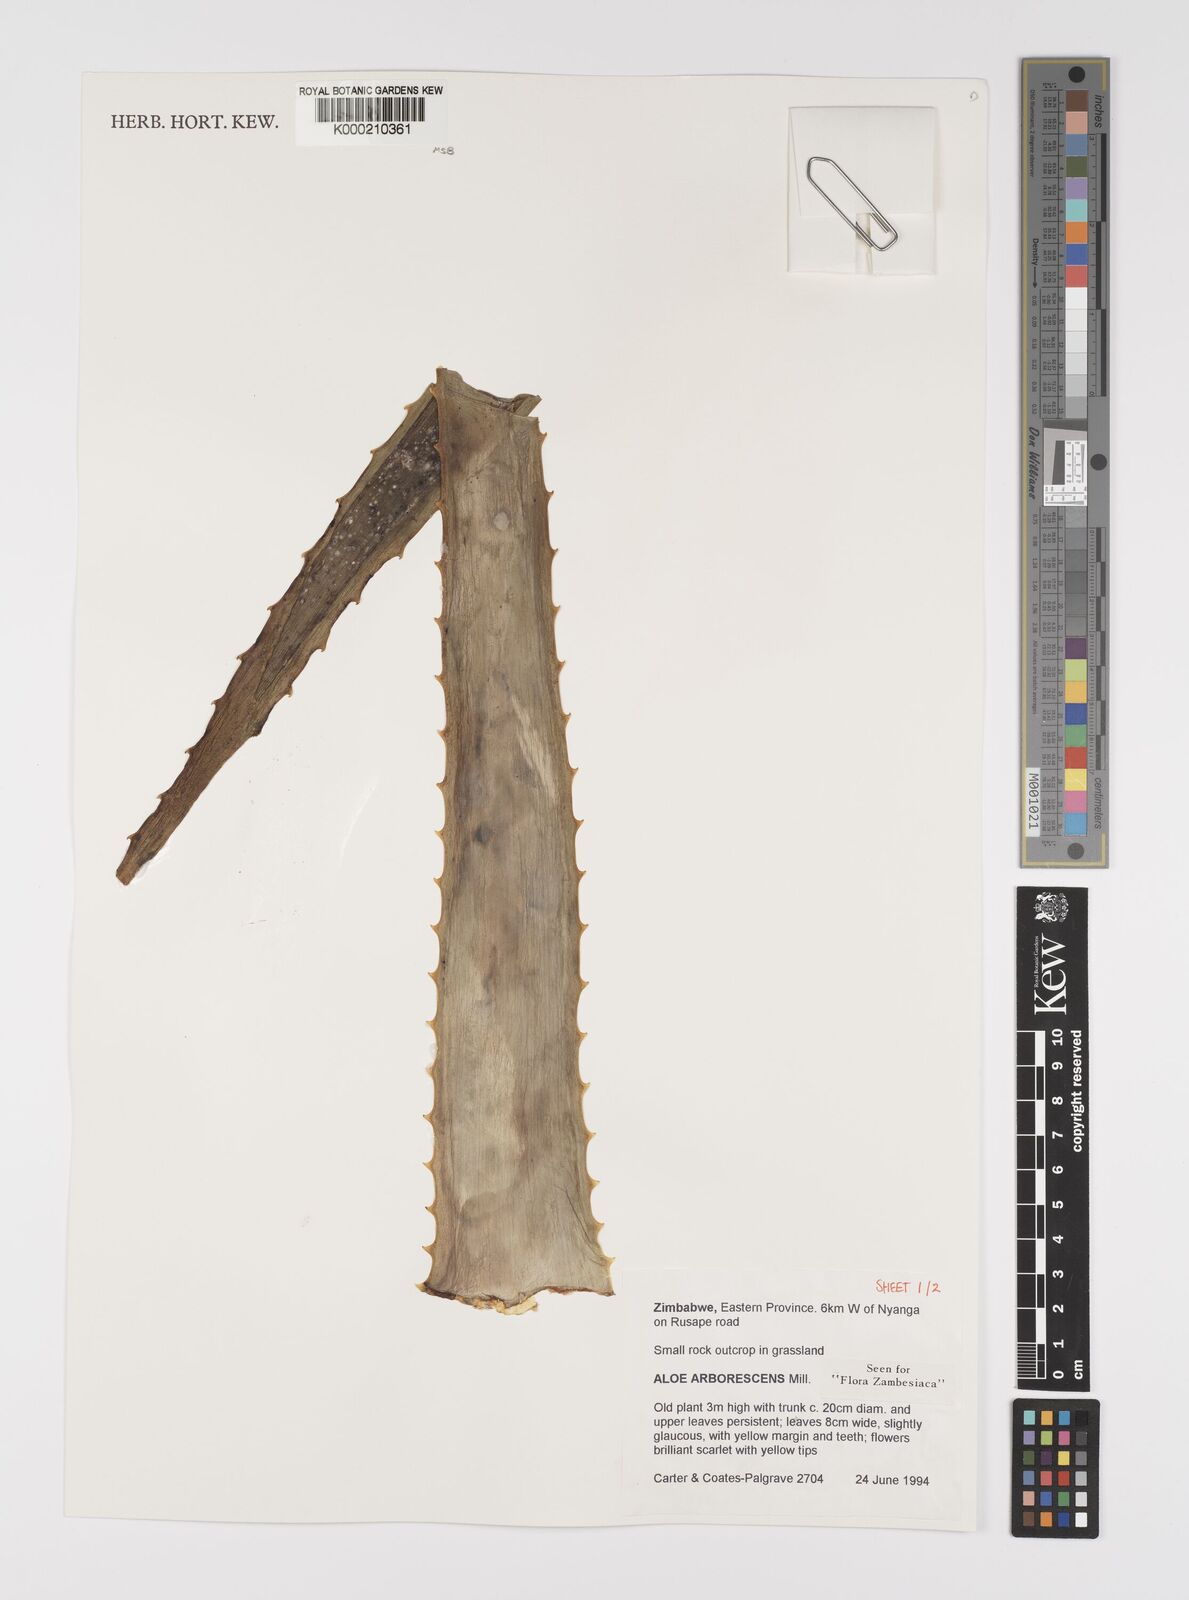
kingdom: Plantae
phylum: Tracheophyta
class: Liliopsida
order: Asparagales
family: Asphodelaceae
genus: Aloe
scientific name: Aloe arborescens
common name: Candelabra aloe
